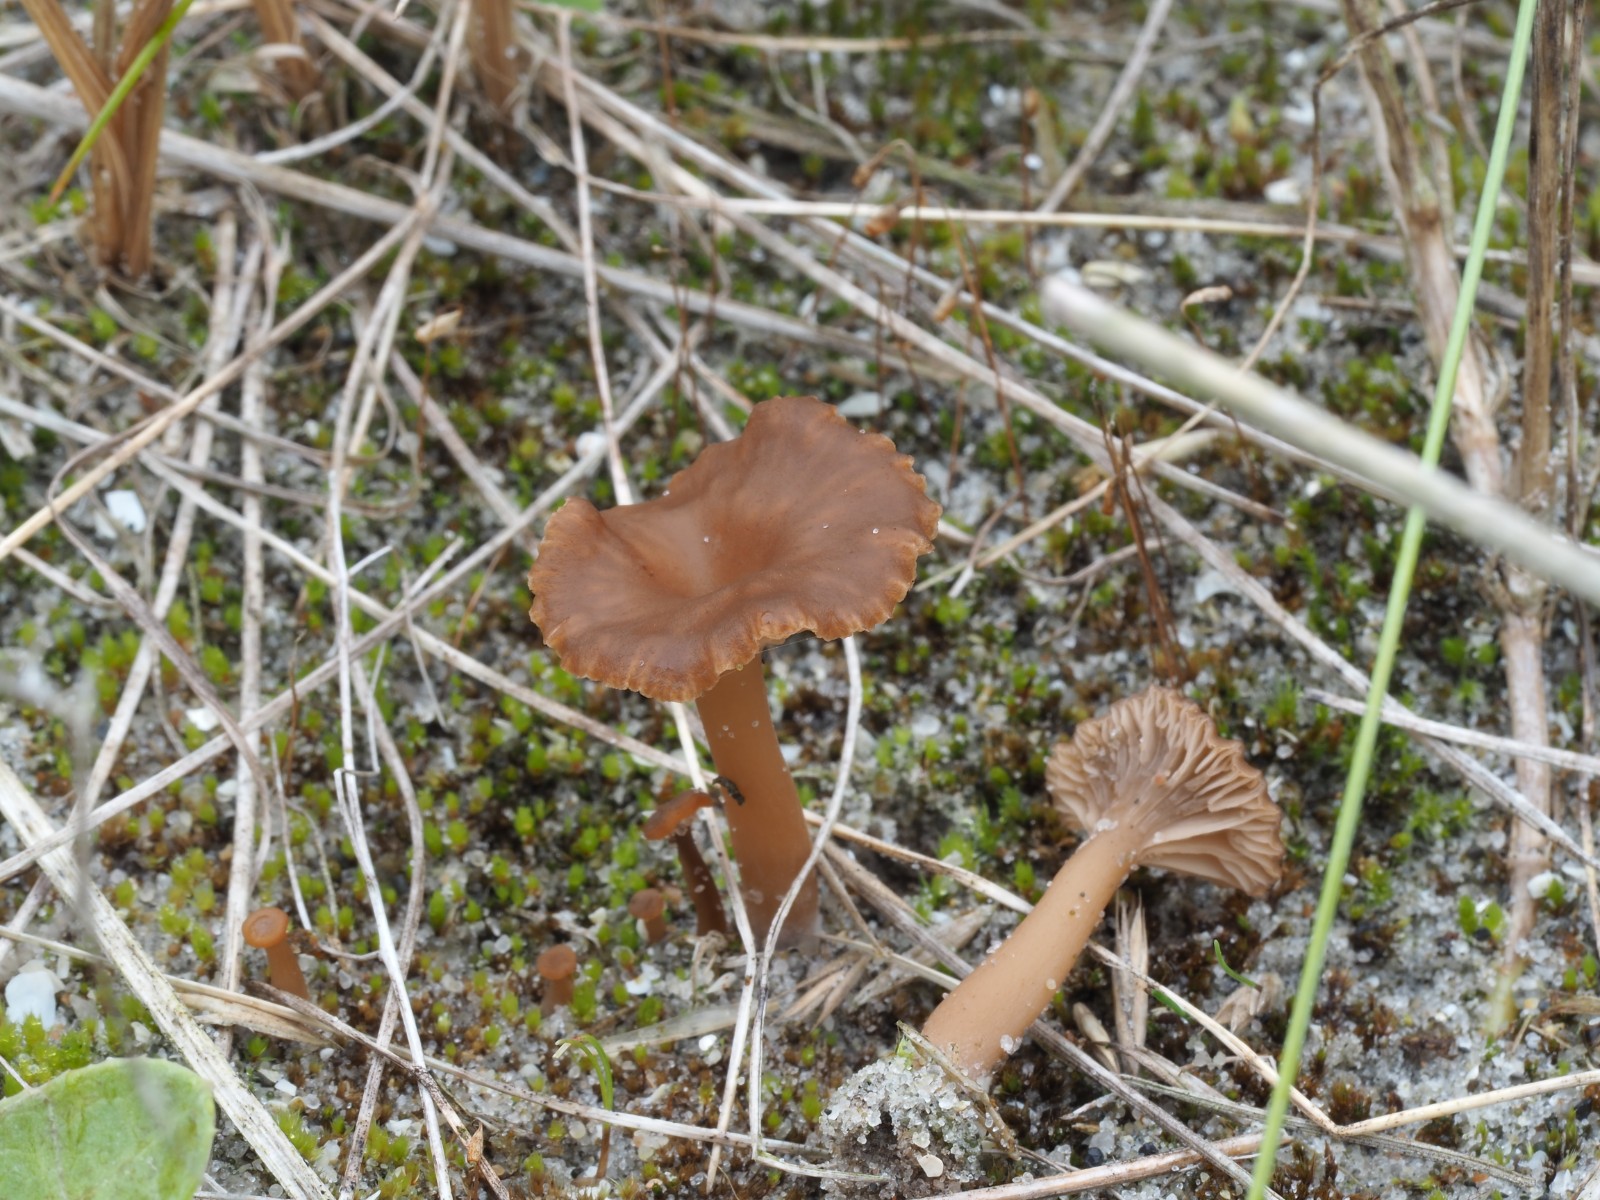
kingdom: Fungi
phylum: Basidiomycota
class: Agaricomycetes
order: Agaricales
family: Hydnangiaceae
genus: Laccaria
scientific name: Laccaria
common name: ametysthat
